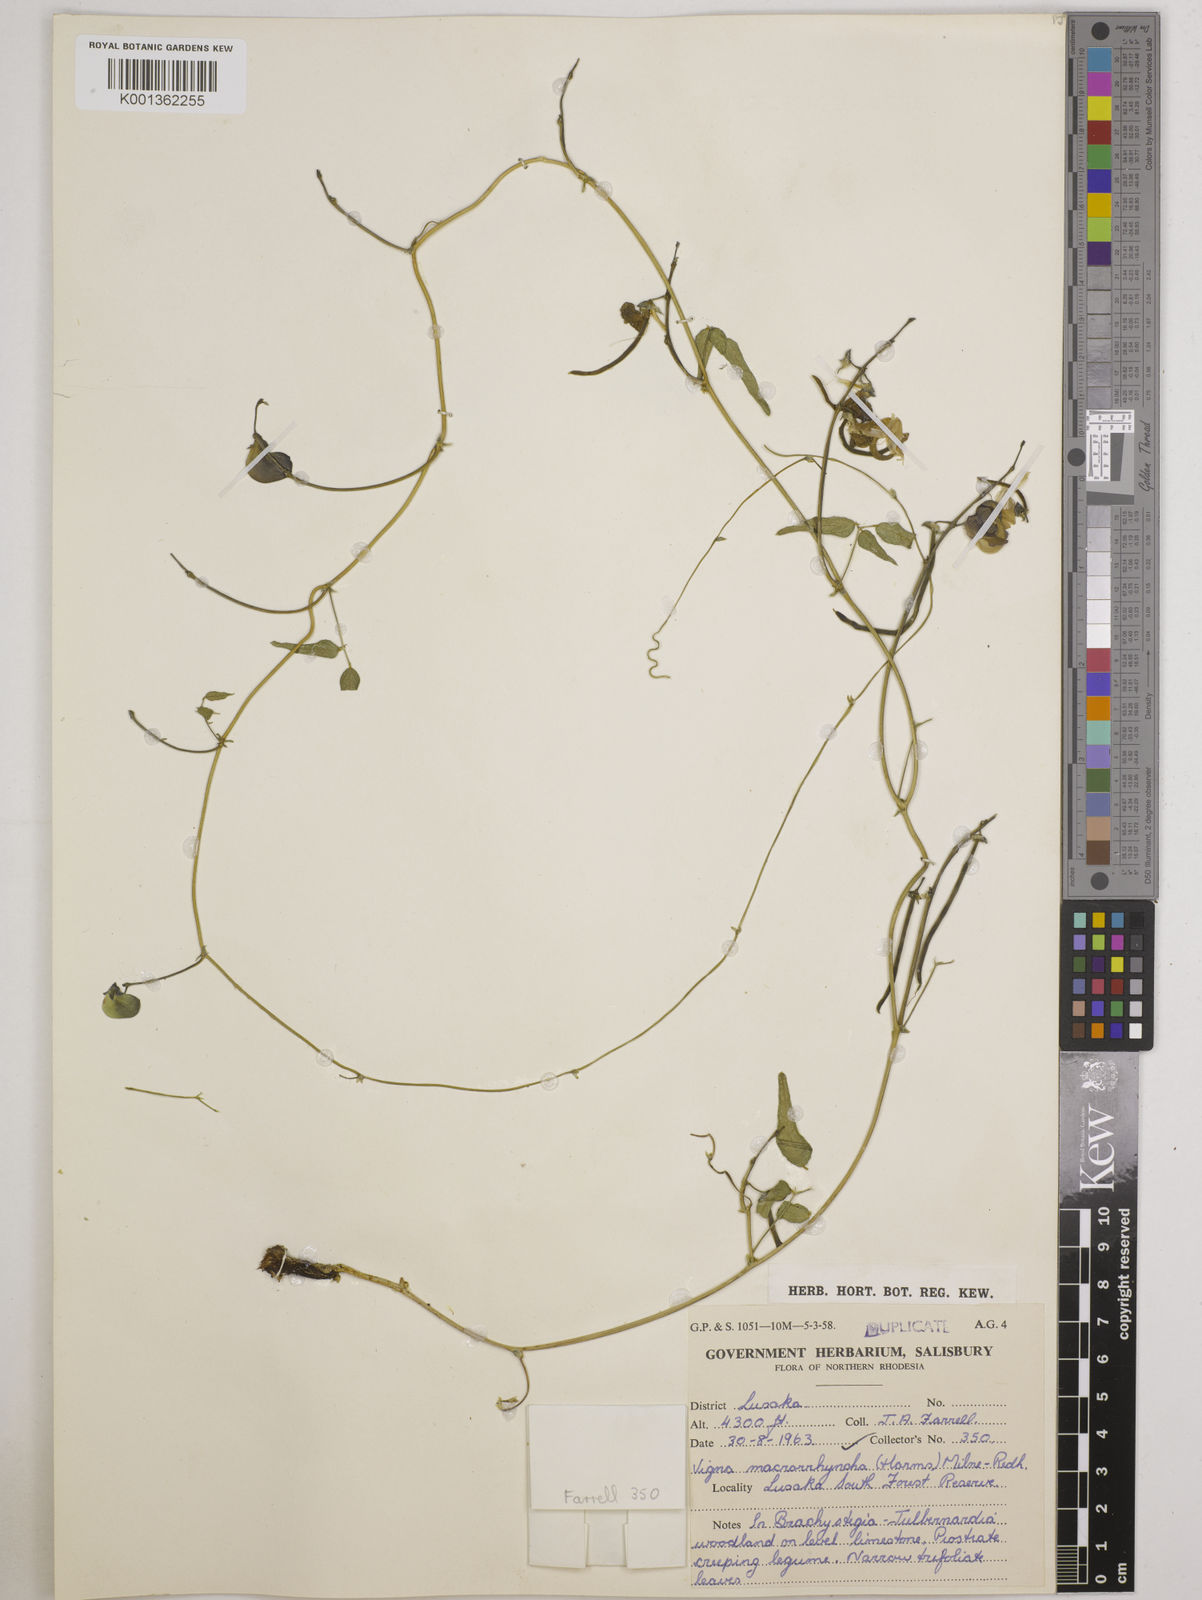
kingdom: Plantae
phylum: Tracheophyta
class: Magnoliopsida
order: Fabales
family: Fabaceae
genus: Wajira
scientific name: Wajira grahamiana
